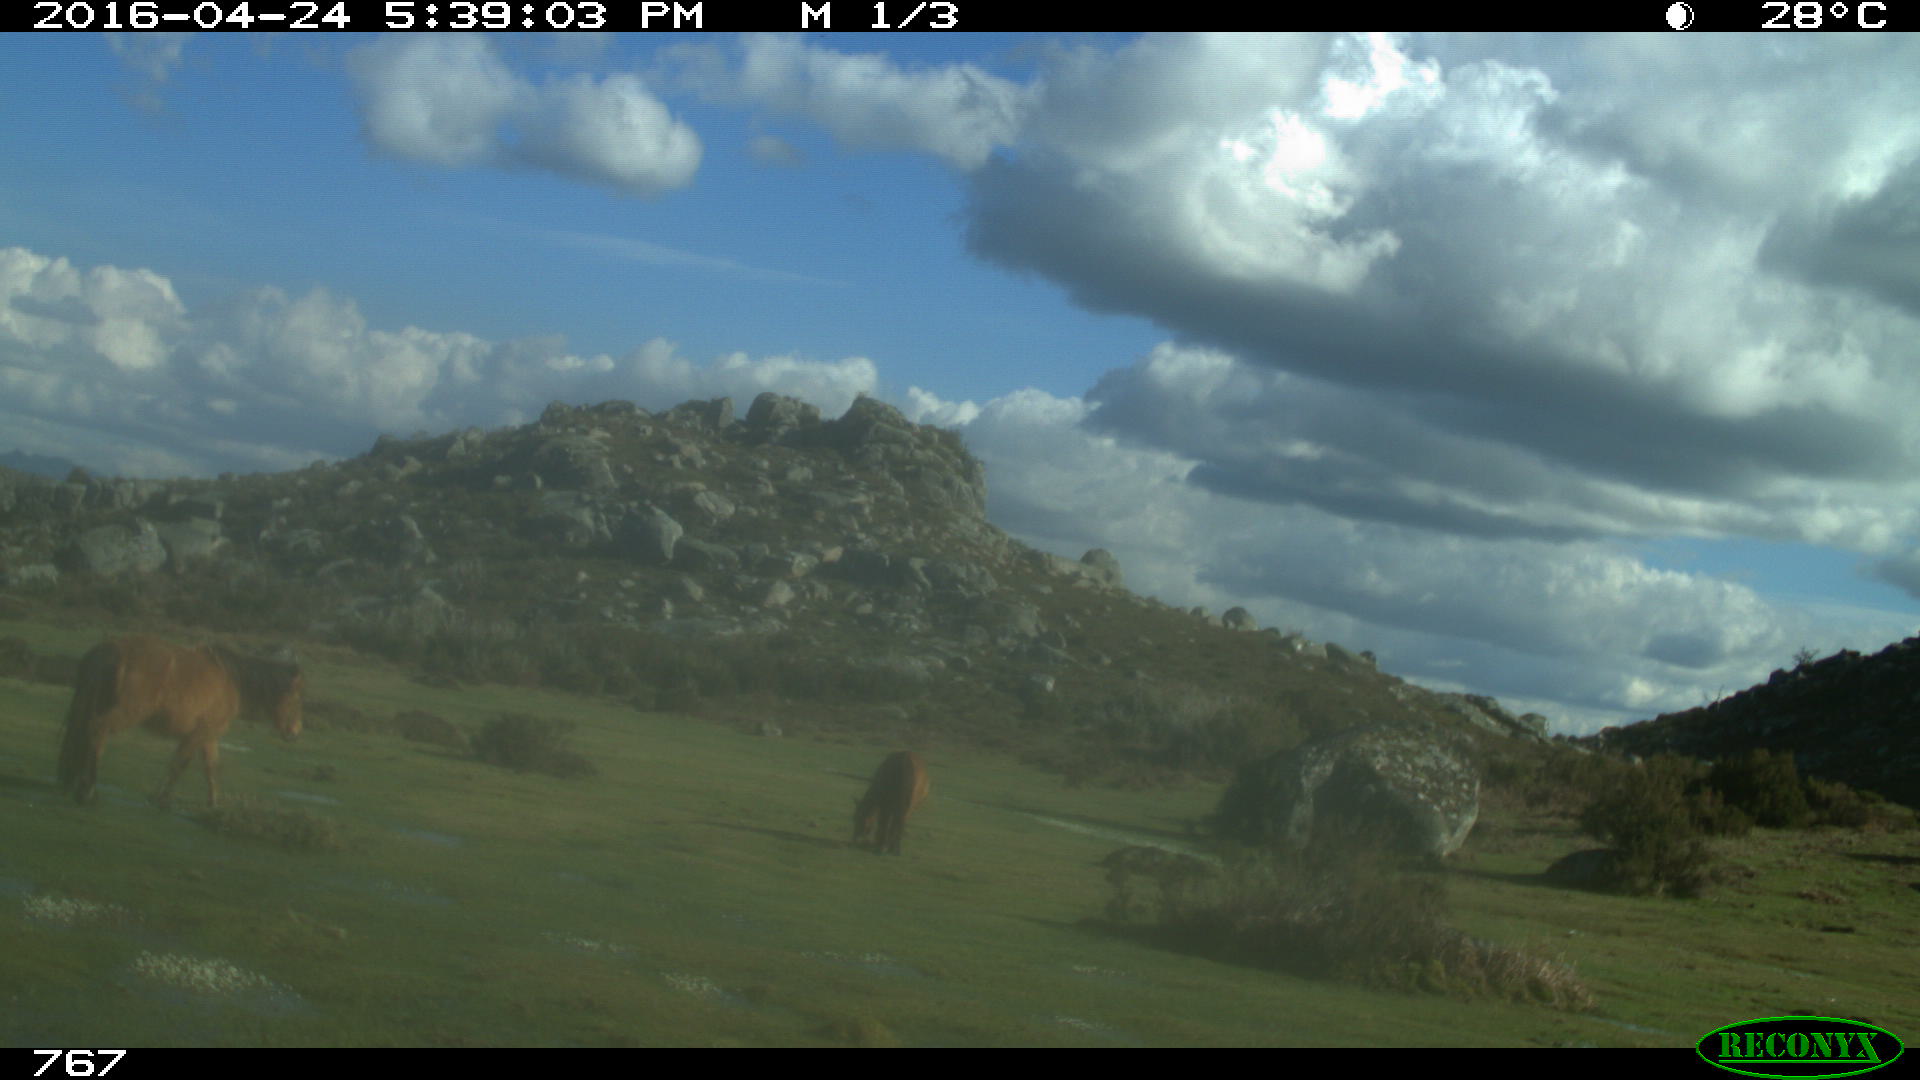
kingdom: Animalia
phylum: Chordata
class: Mammalia
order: Perissodactyla
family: Equidae
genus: Equus
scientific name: Equus caballus
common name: Horse
